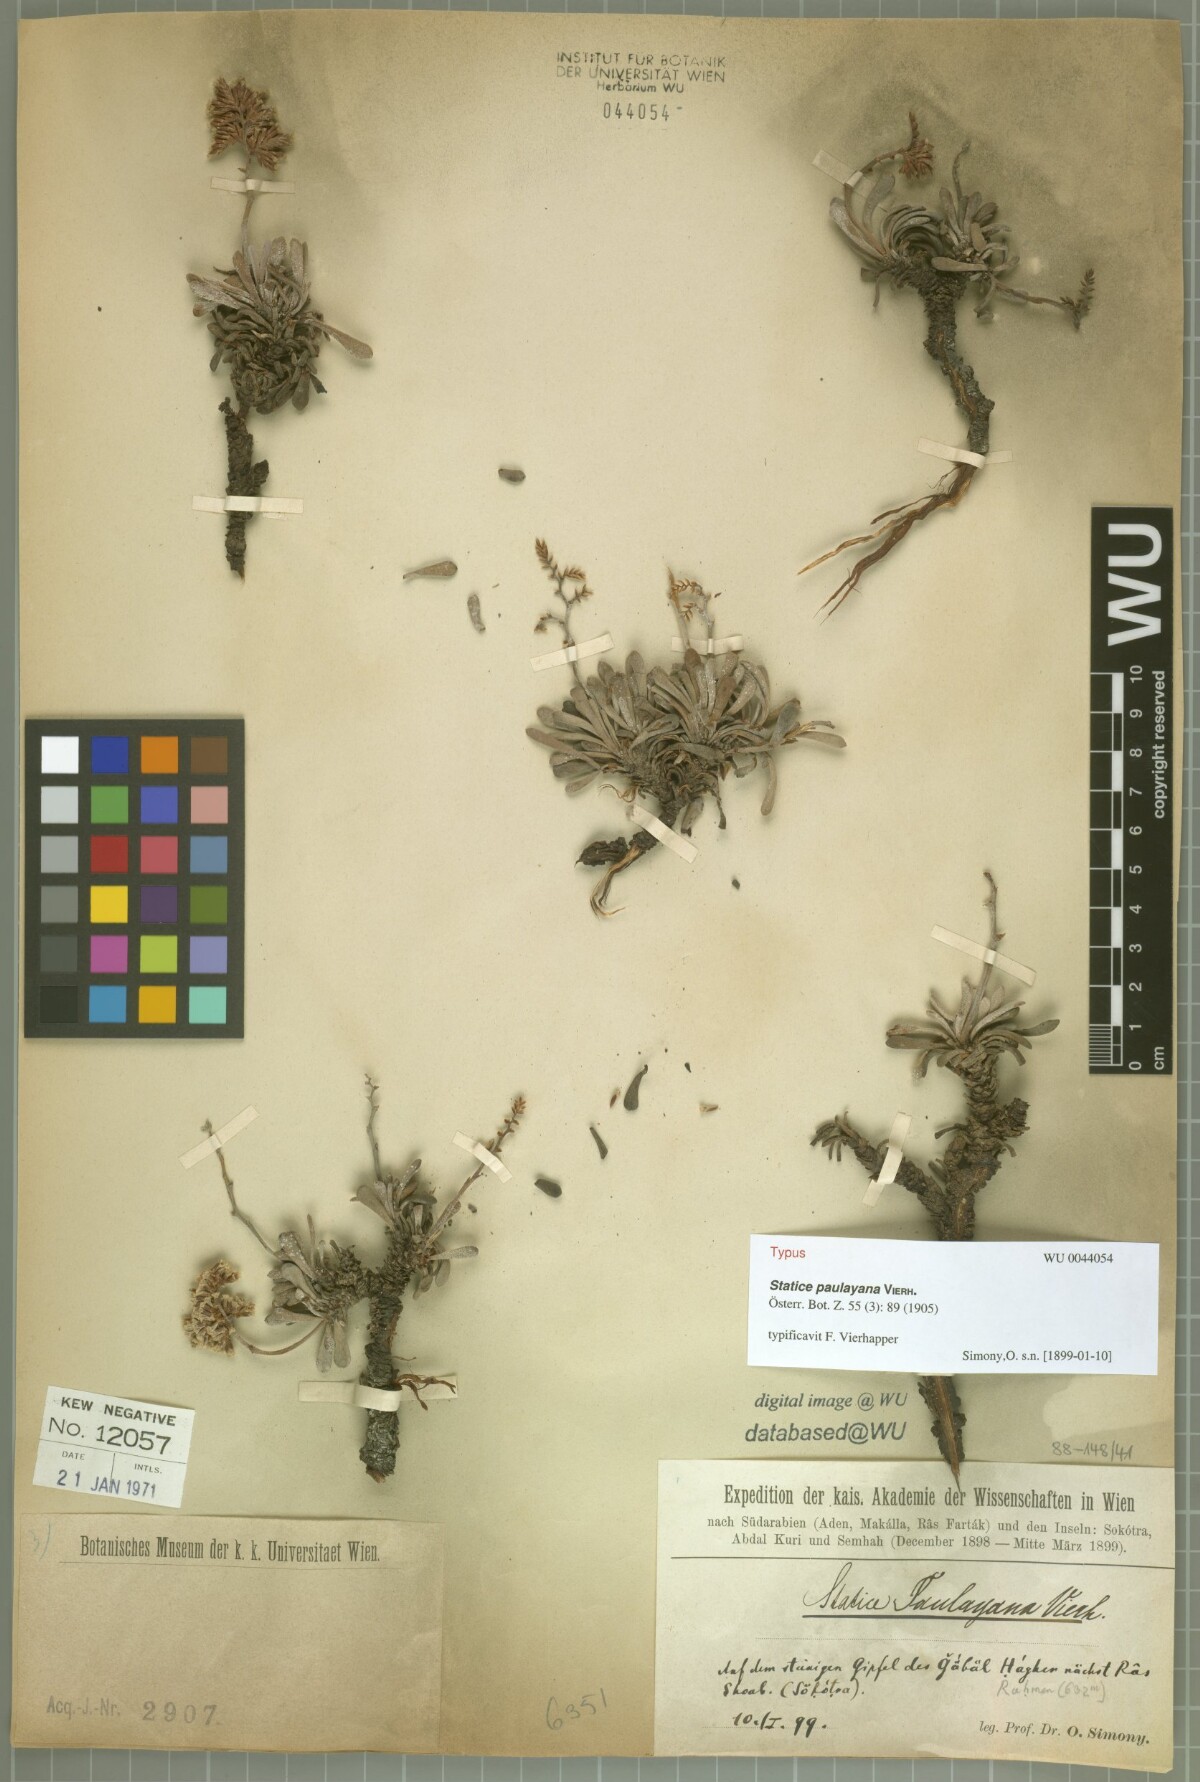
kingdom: Plantae
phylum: Tracheophyta
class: Magnoliopsida
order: Caryophyllales
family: Plumbaginaceae
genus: Limonium
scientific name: Limonium paulayanum
